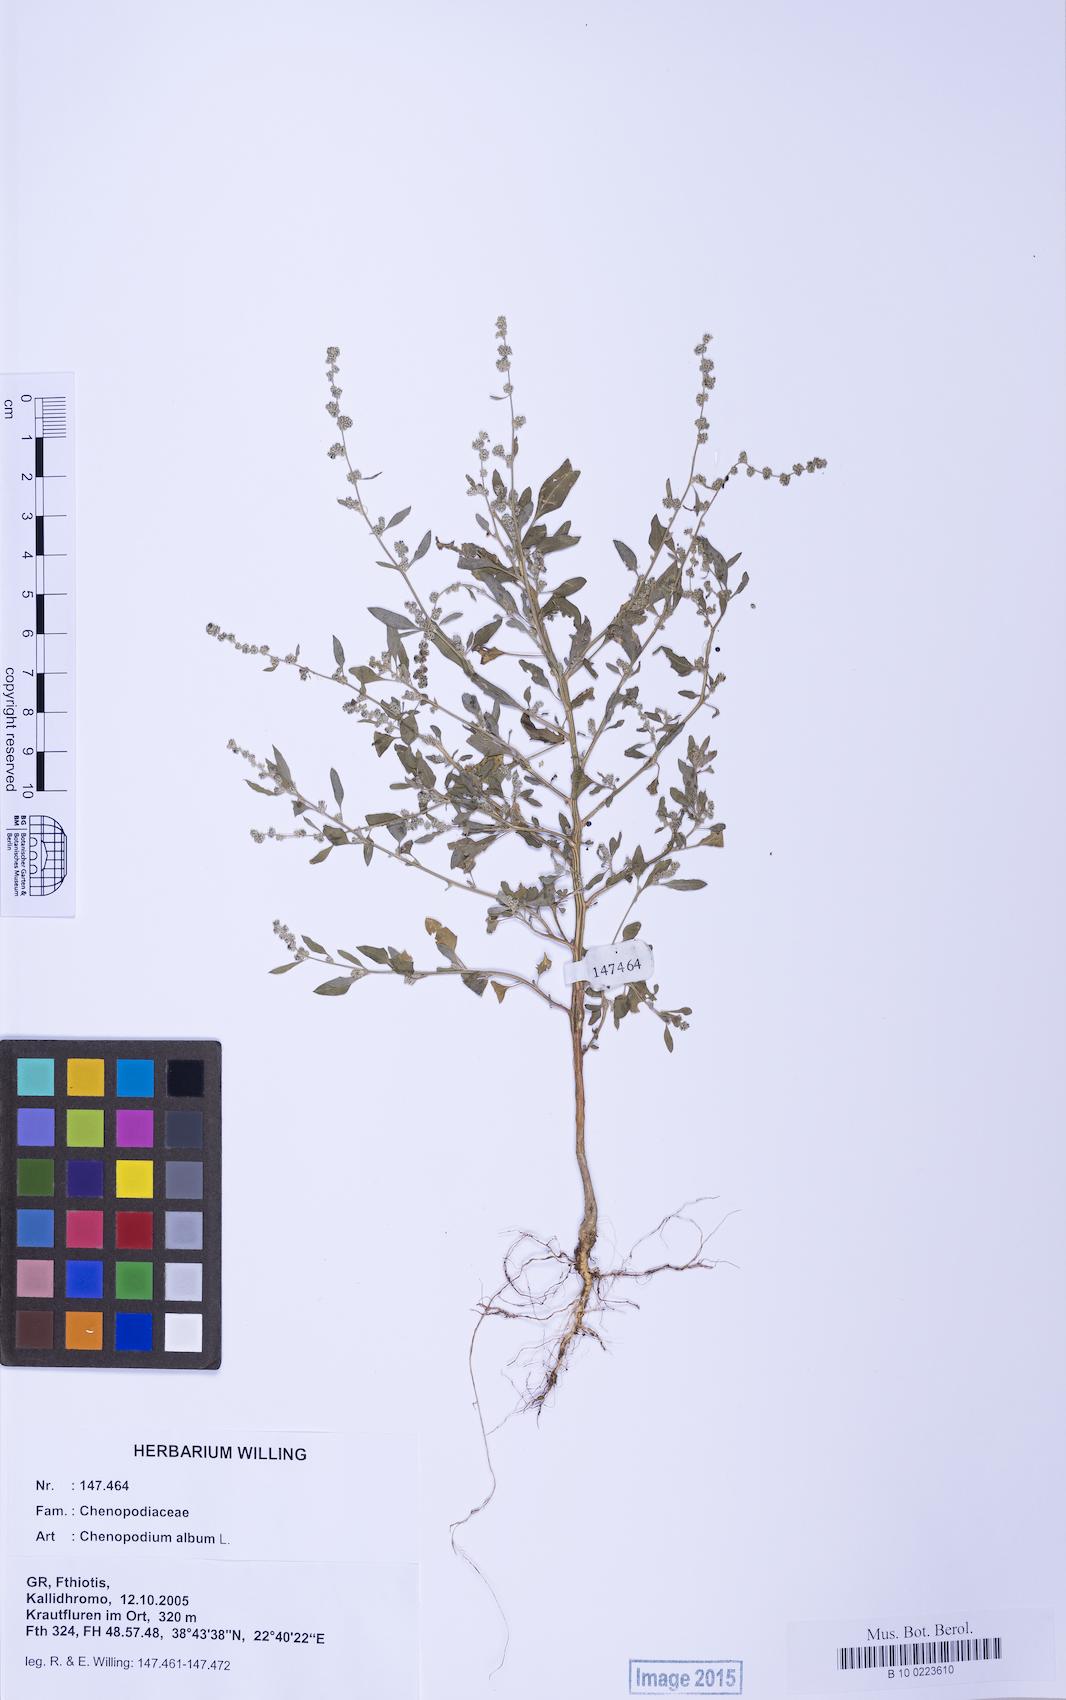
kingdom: Plantae
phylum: Tracheophyta
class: Magnoliopsida
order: Caryophyllales
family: Amaranthaceae
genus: Chenopodium
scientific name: Chenopodium striatiforme
